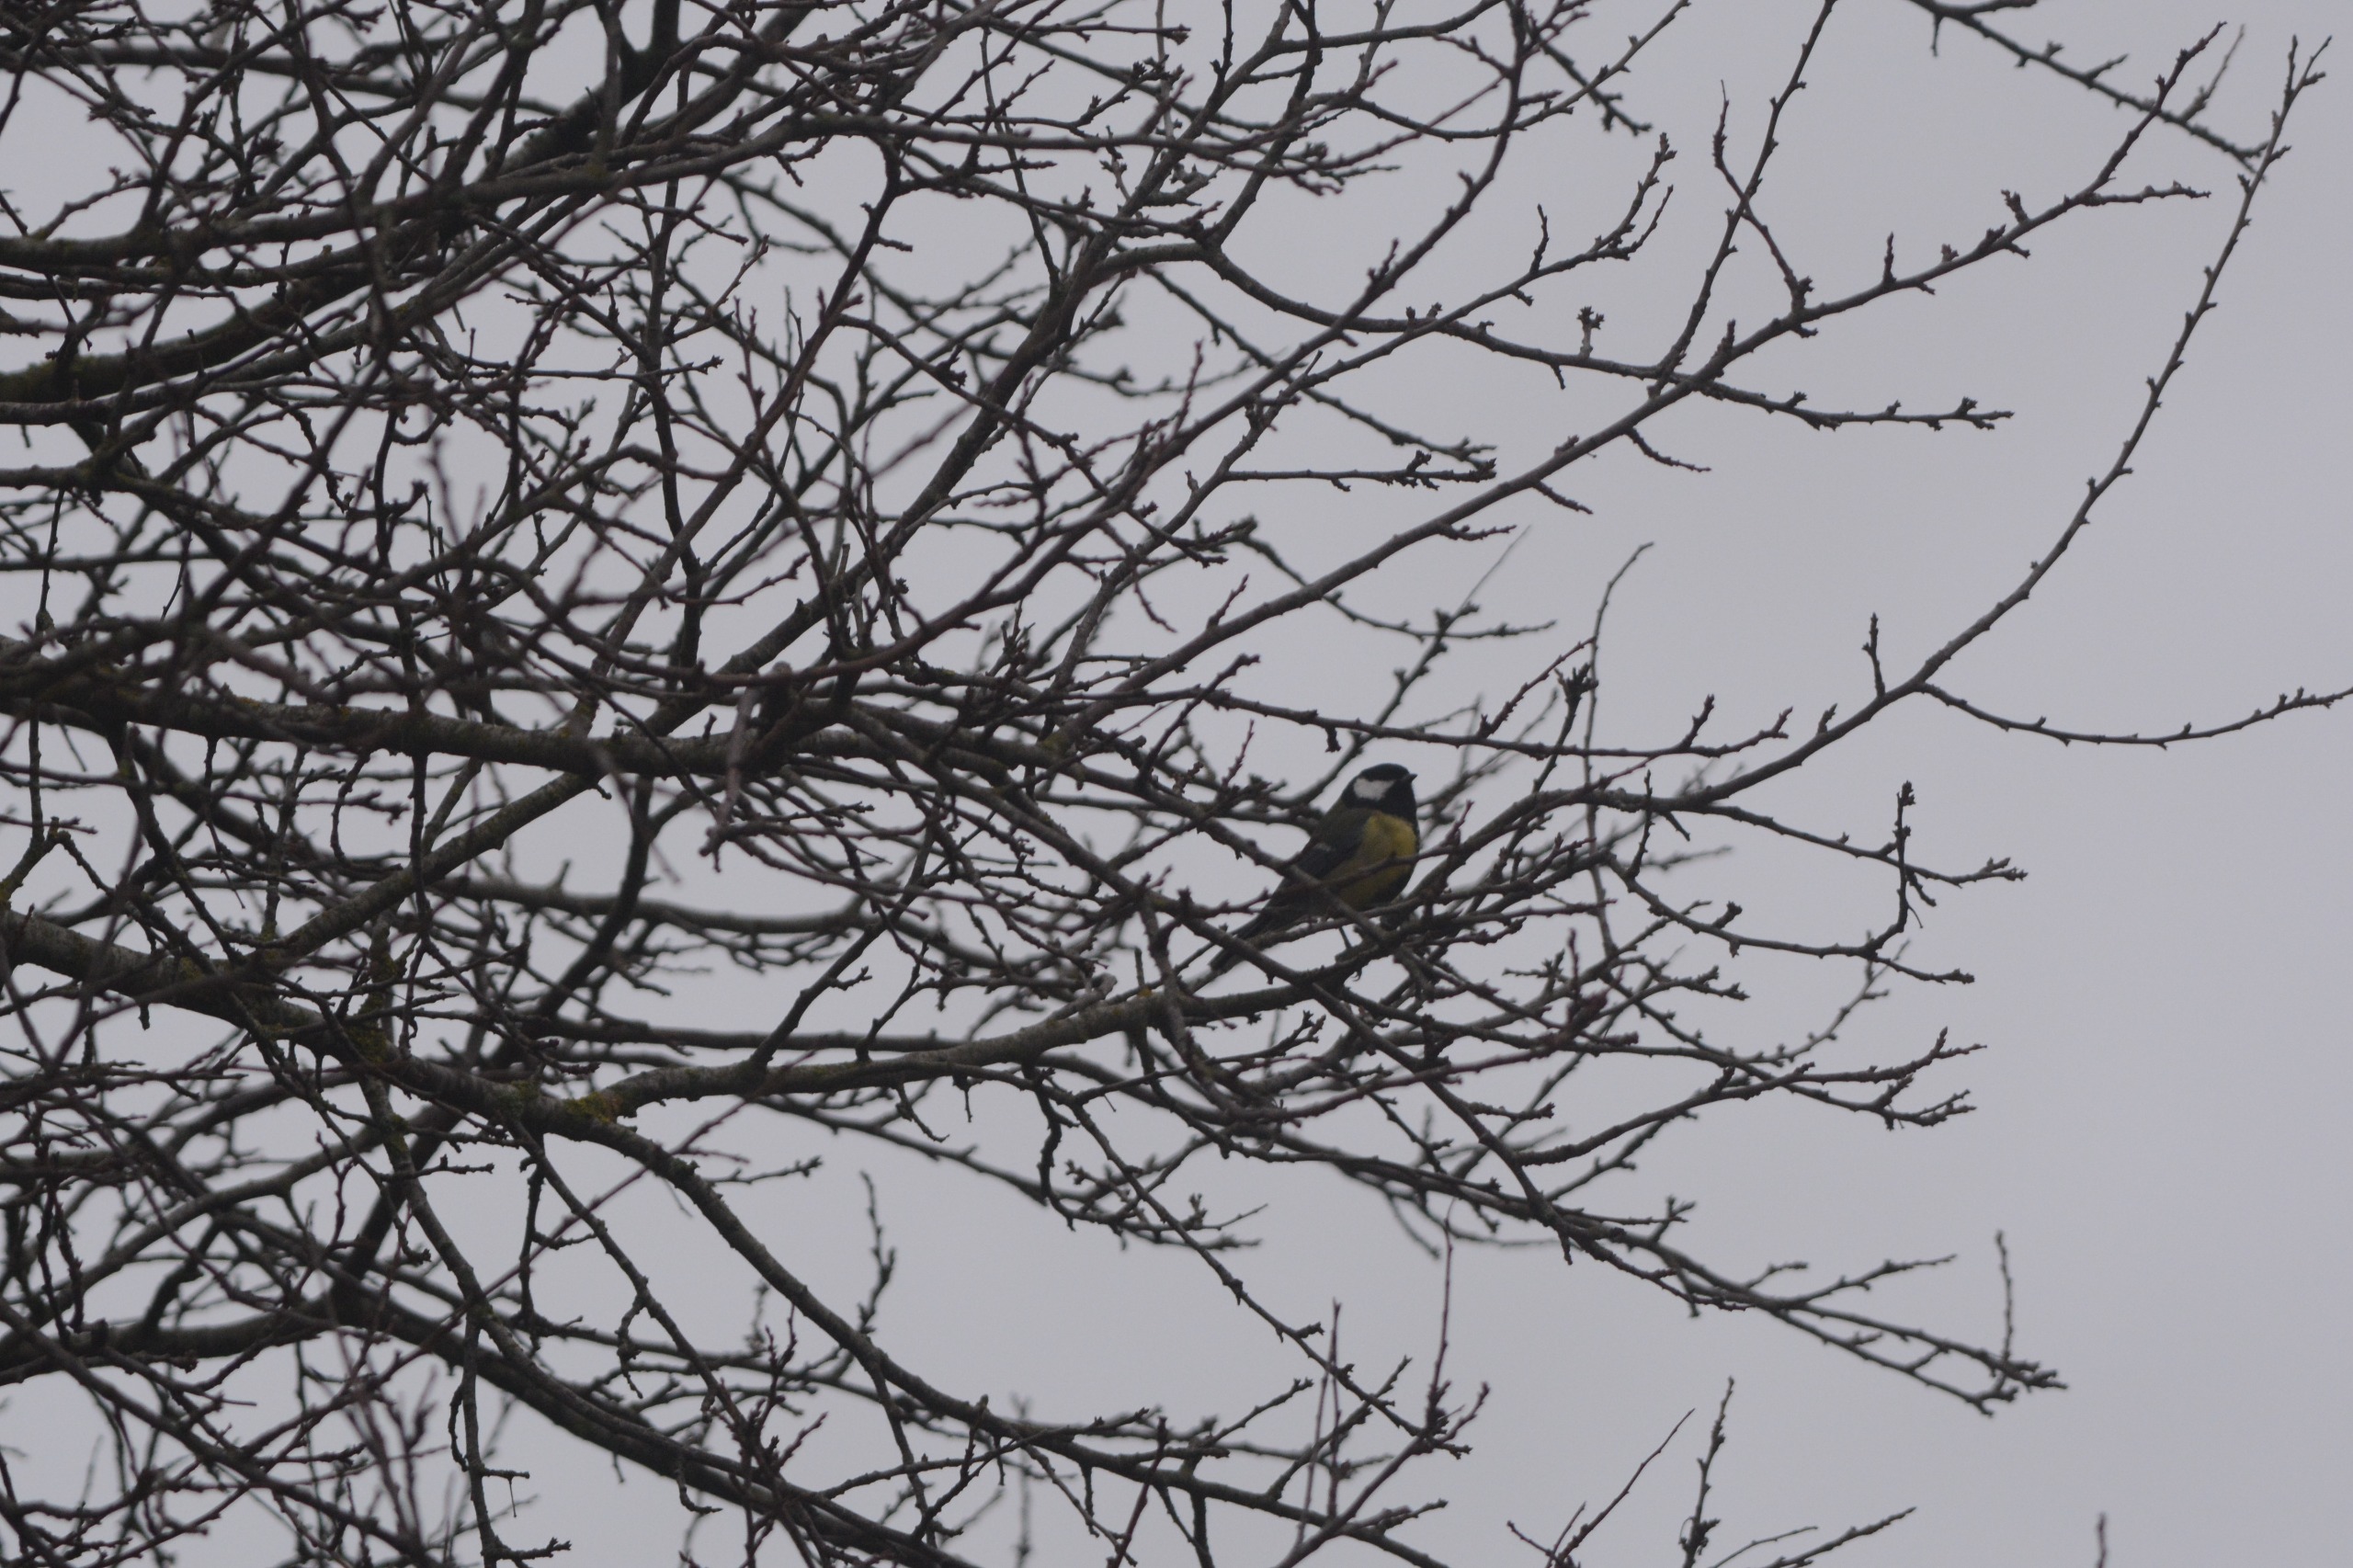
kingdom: Animalia
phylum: Chordata
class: Aves
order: Passeriformes
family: Paridae
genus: Parus
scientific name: Parus major
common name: Musvit
